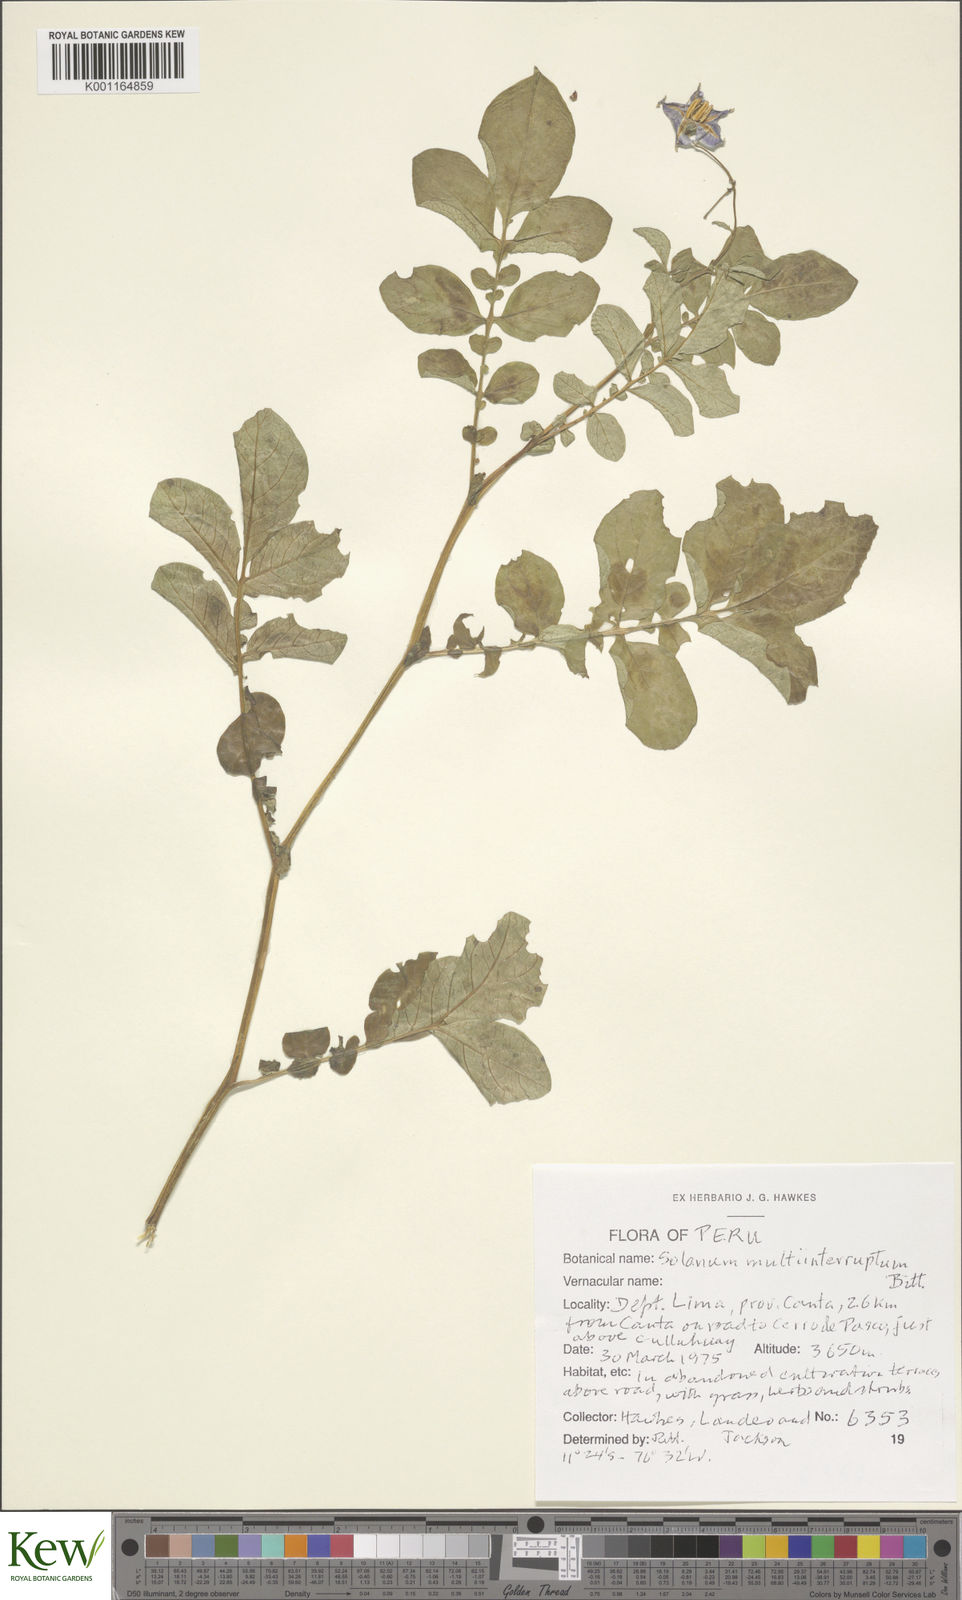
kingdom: Plantae
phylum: Tracheophyta
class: Magnoliopsida
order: Solanales
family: Solanaceae
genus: Solanum
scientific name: Solanum multiinterruptum
